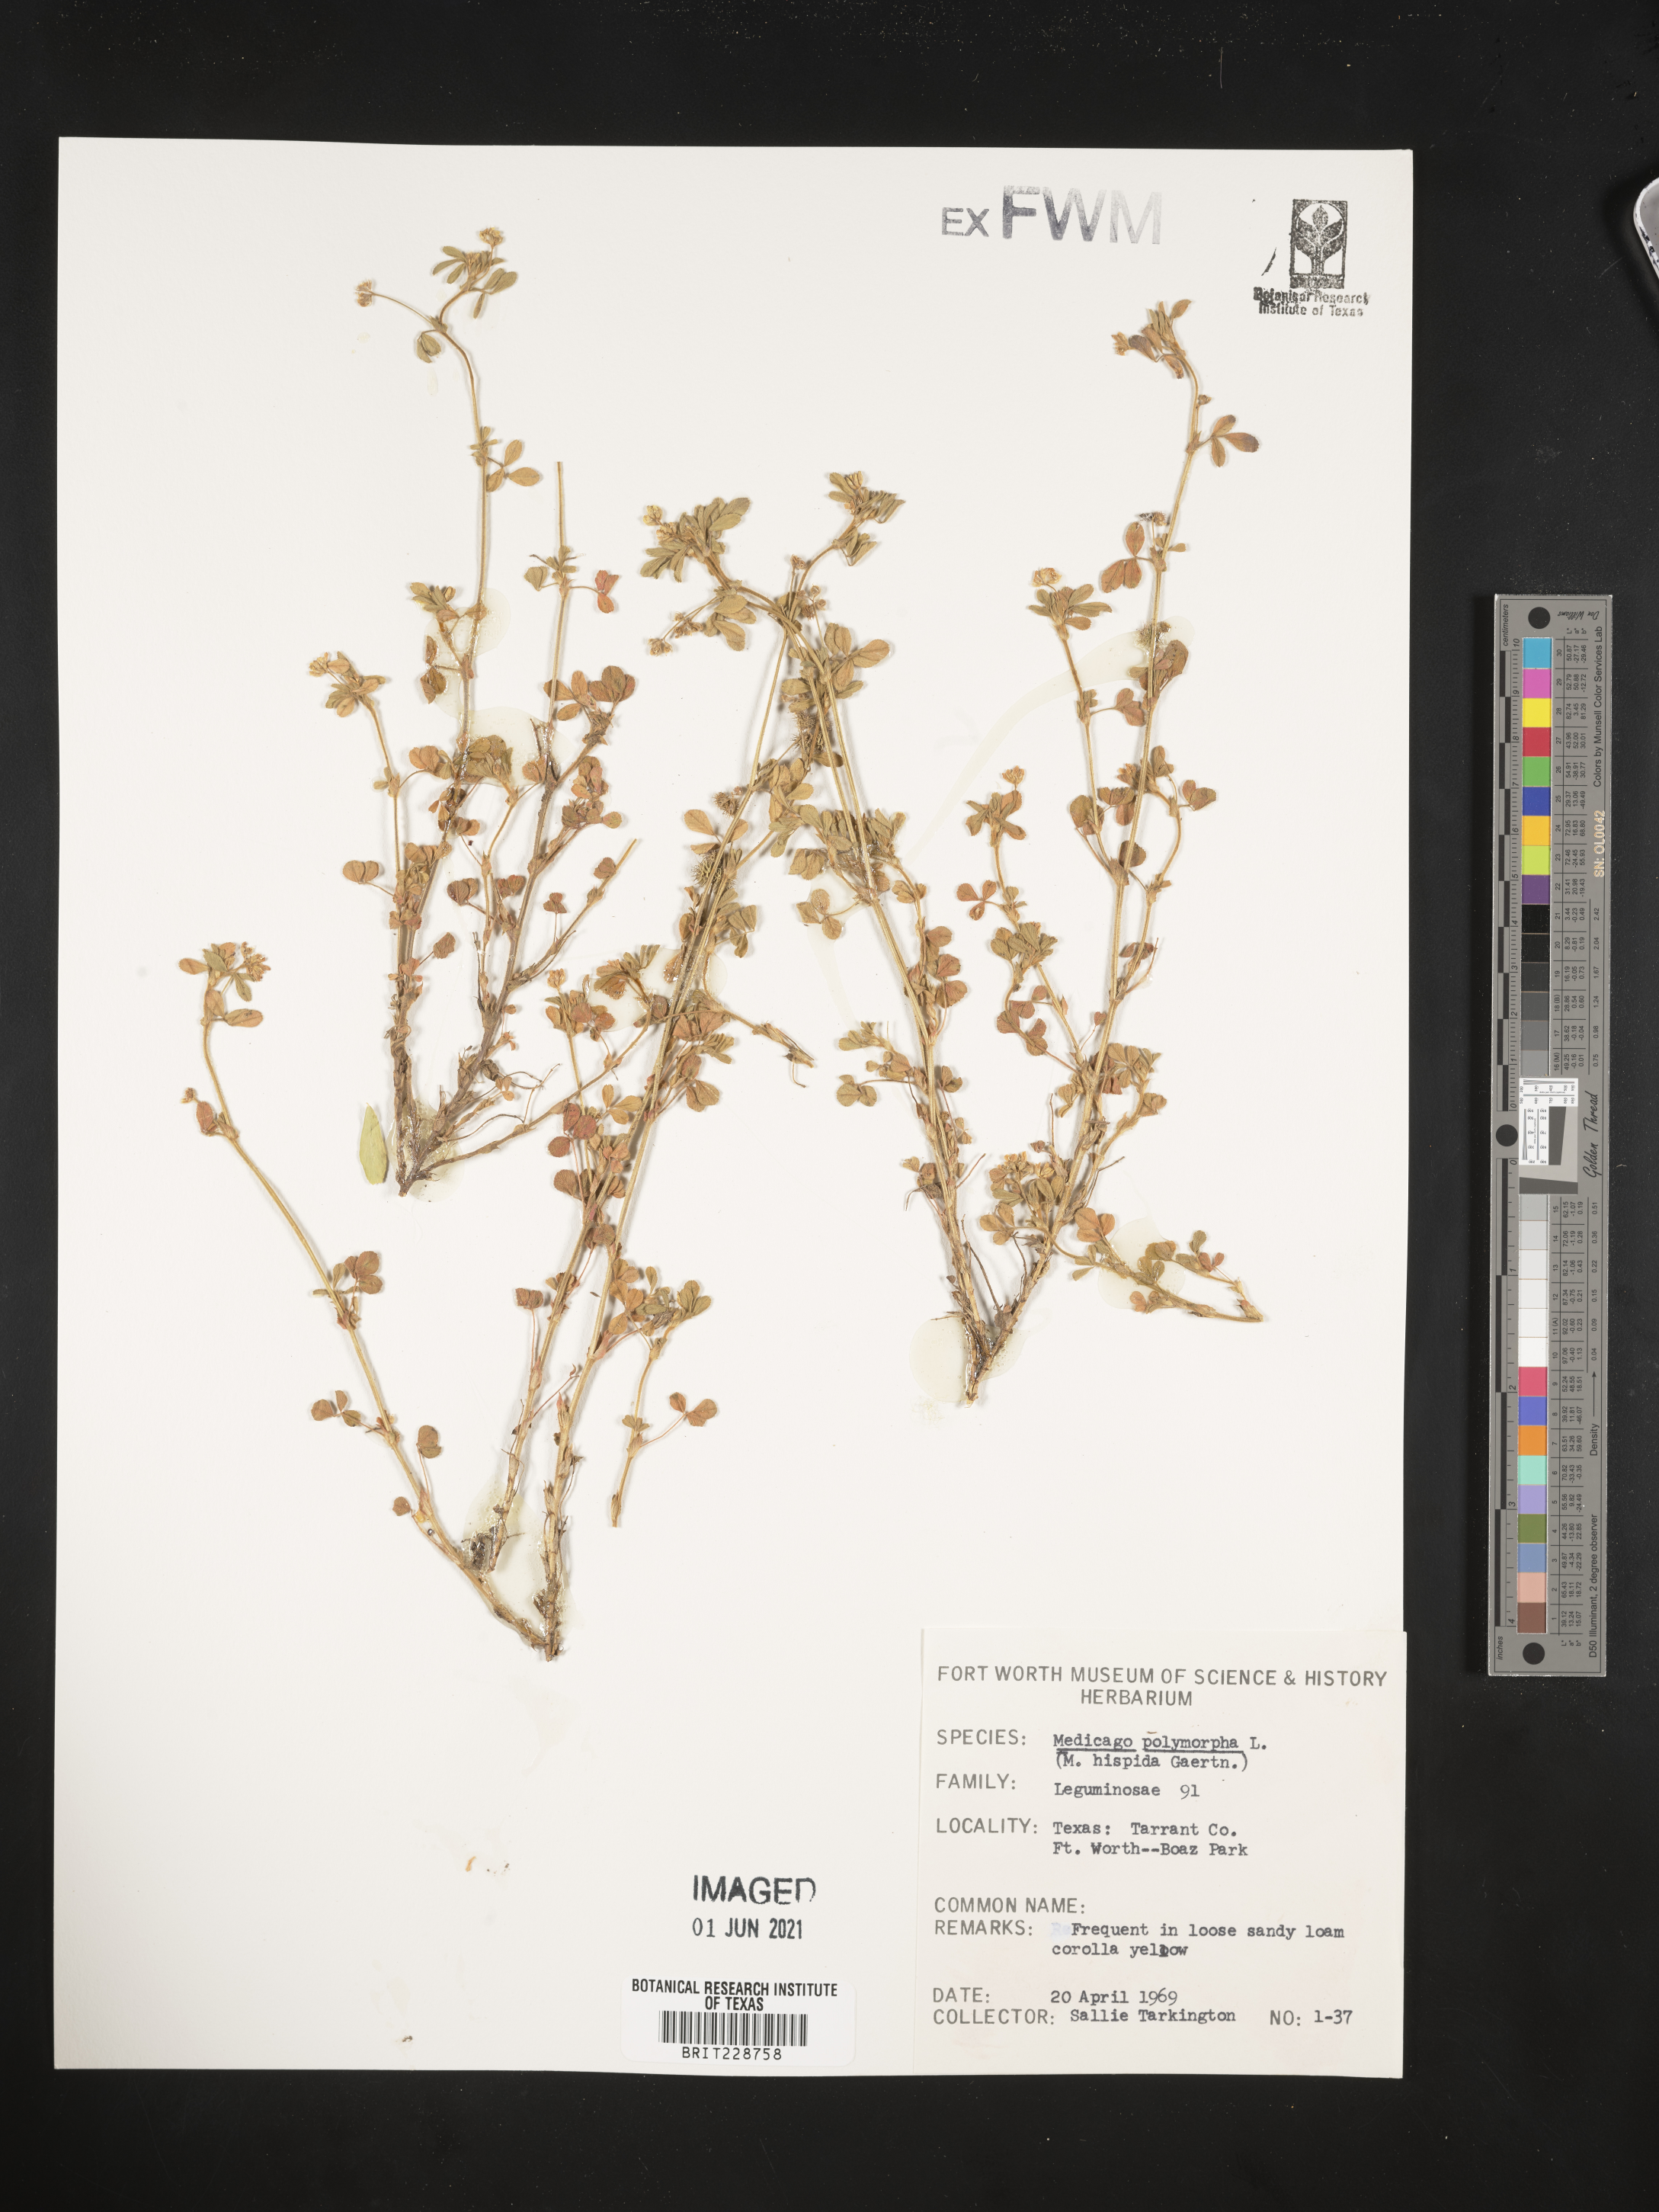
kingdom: Plantae
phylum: Tracheophyta
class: Magnoliopsida
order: Fabales
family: Fabaceae
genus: Medicago
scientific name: Medicago polymorpha
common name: Burclover
